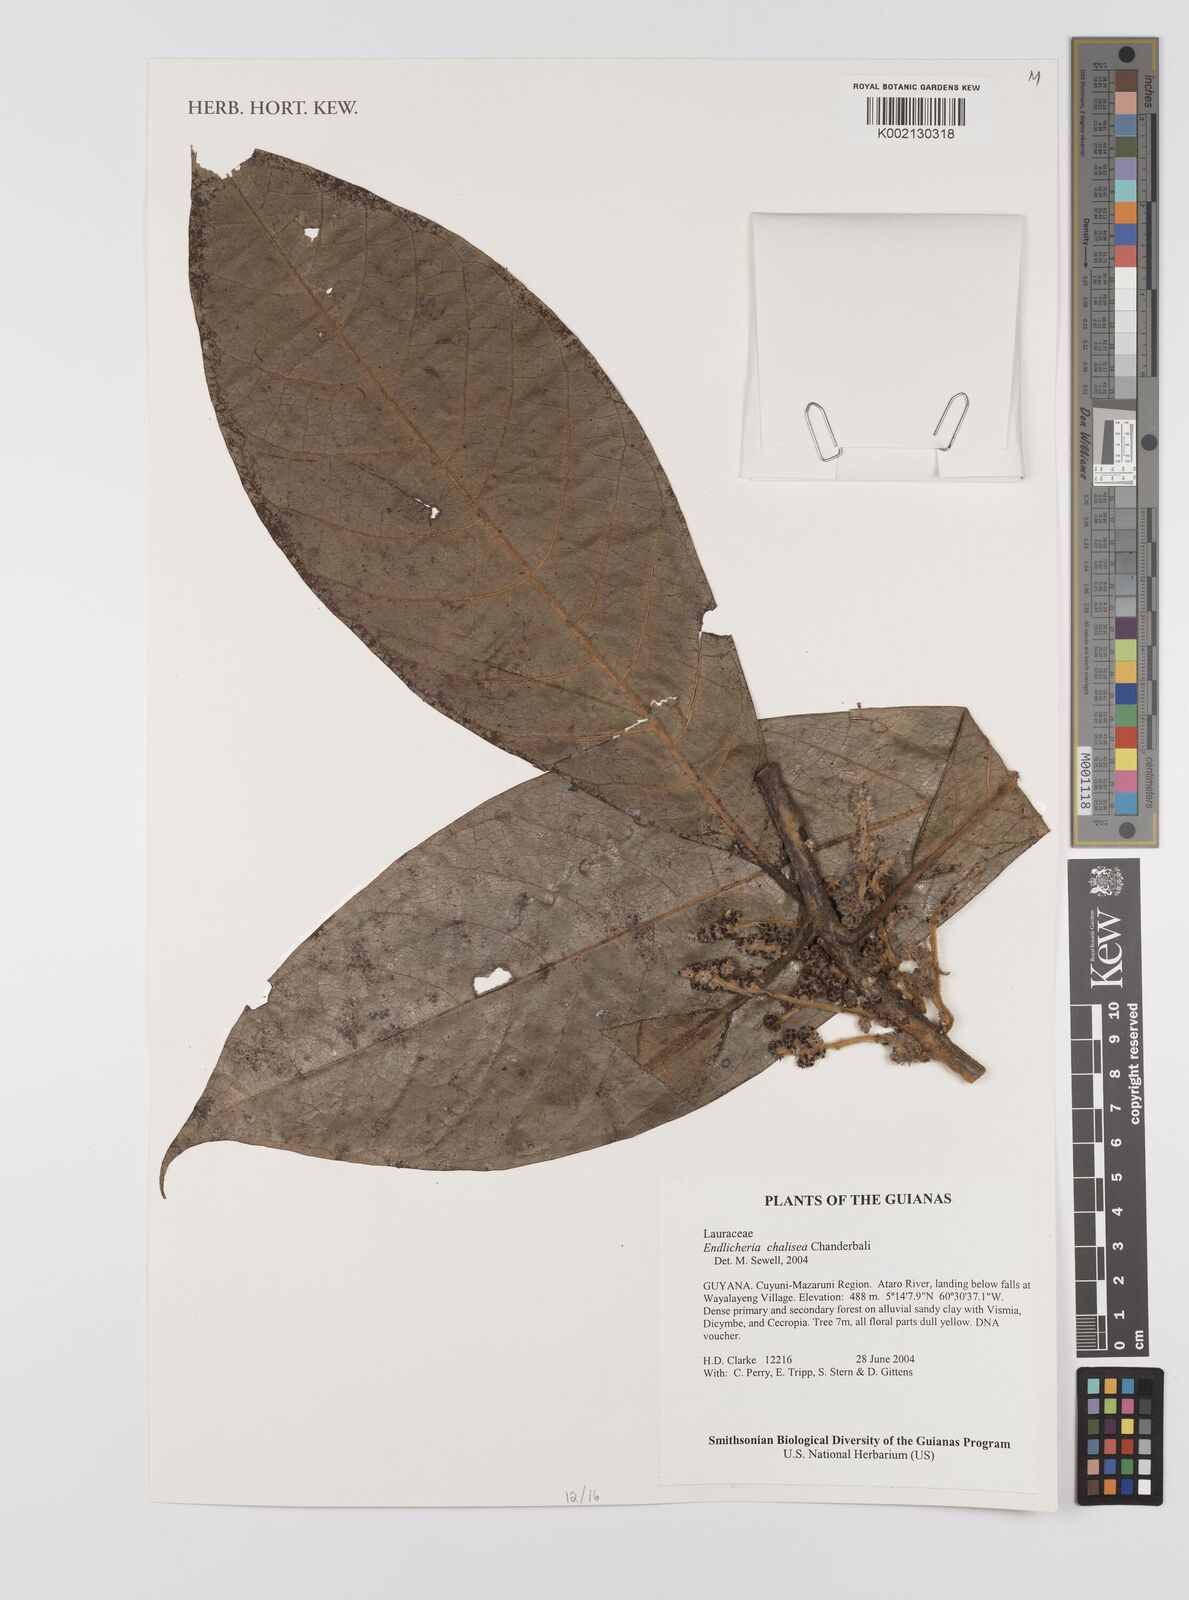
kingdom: Plantae
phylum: Tracheophyta
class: Magnoliopsida
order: Laurales
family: Lauraceae
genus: Endlicheria
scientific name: Endlicheria chalisea
